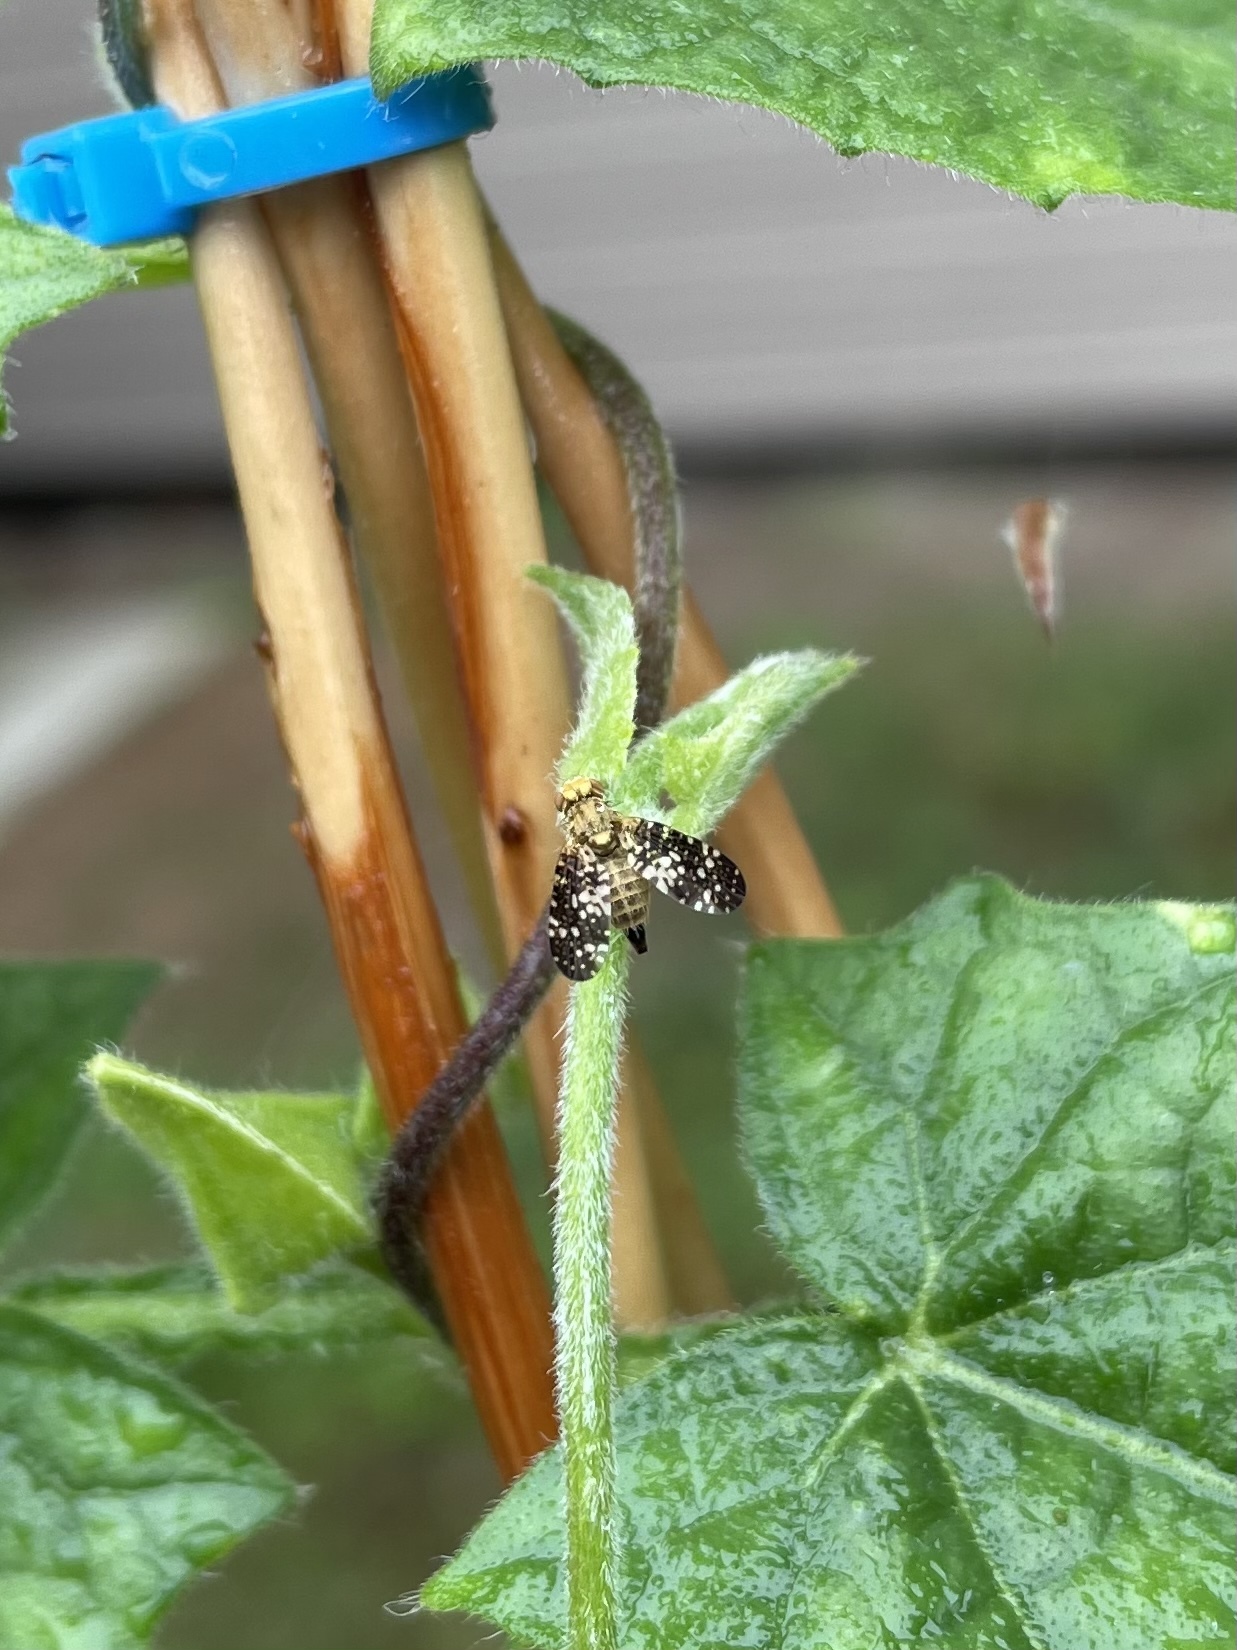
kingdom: Animalia
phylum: Arthropoda
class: Insecta
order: Diptera
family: Tephritidae
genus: Acinia
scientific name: Acinia corniculata
